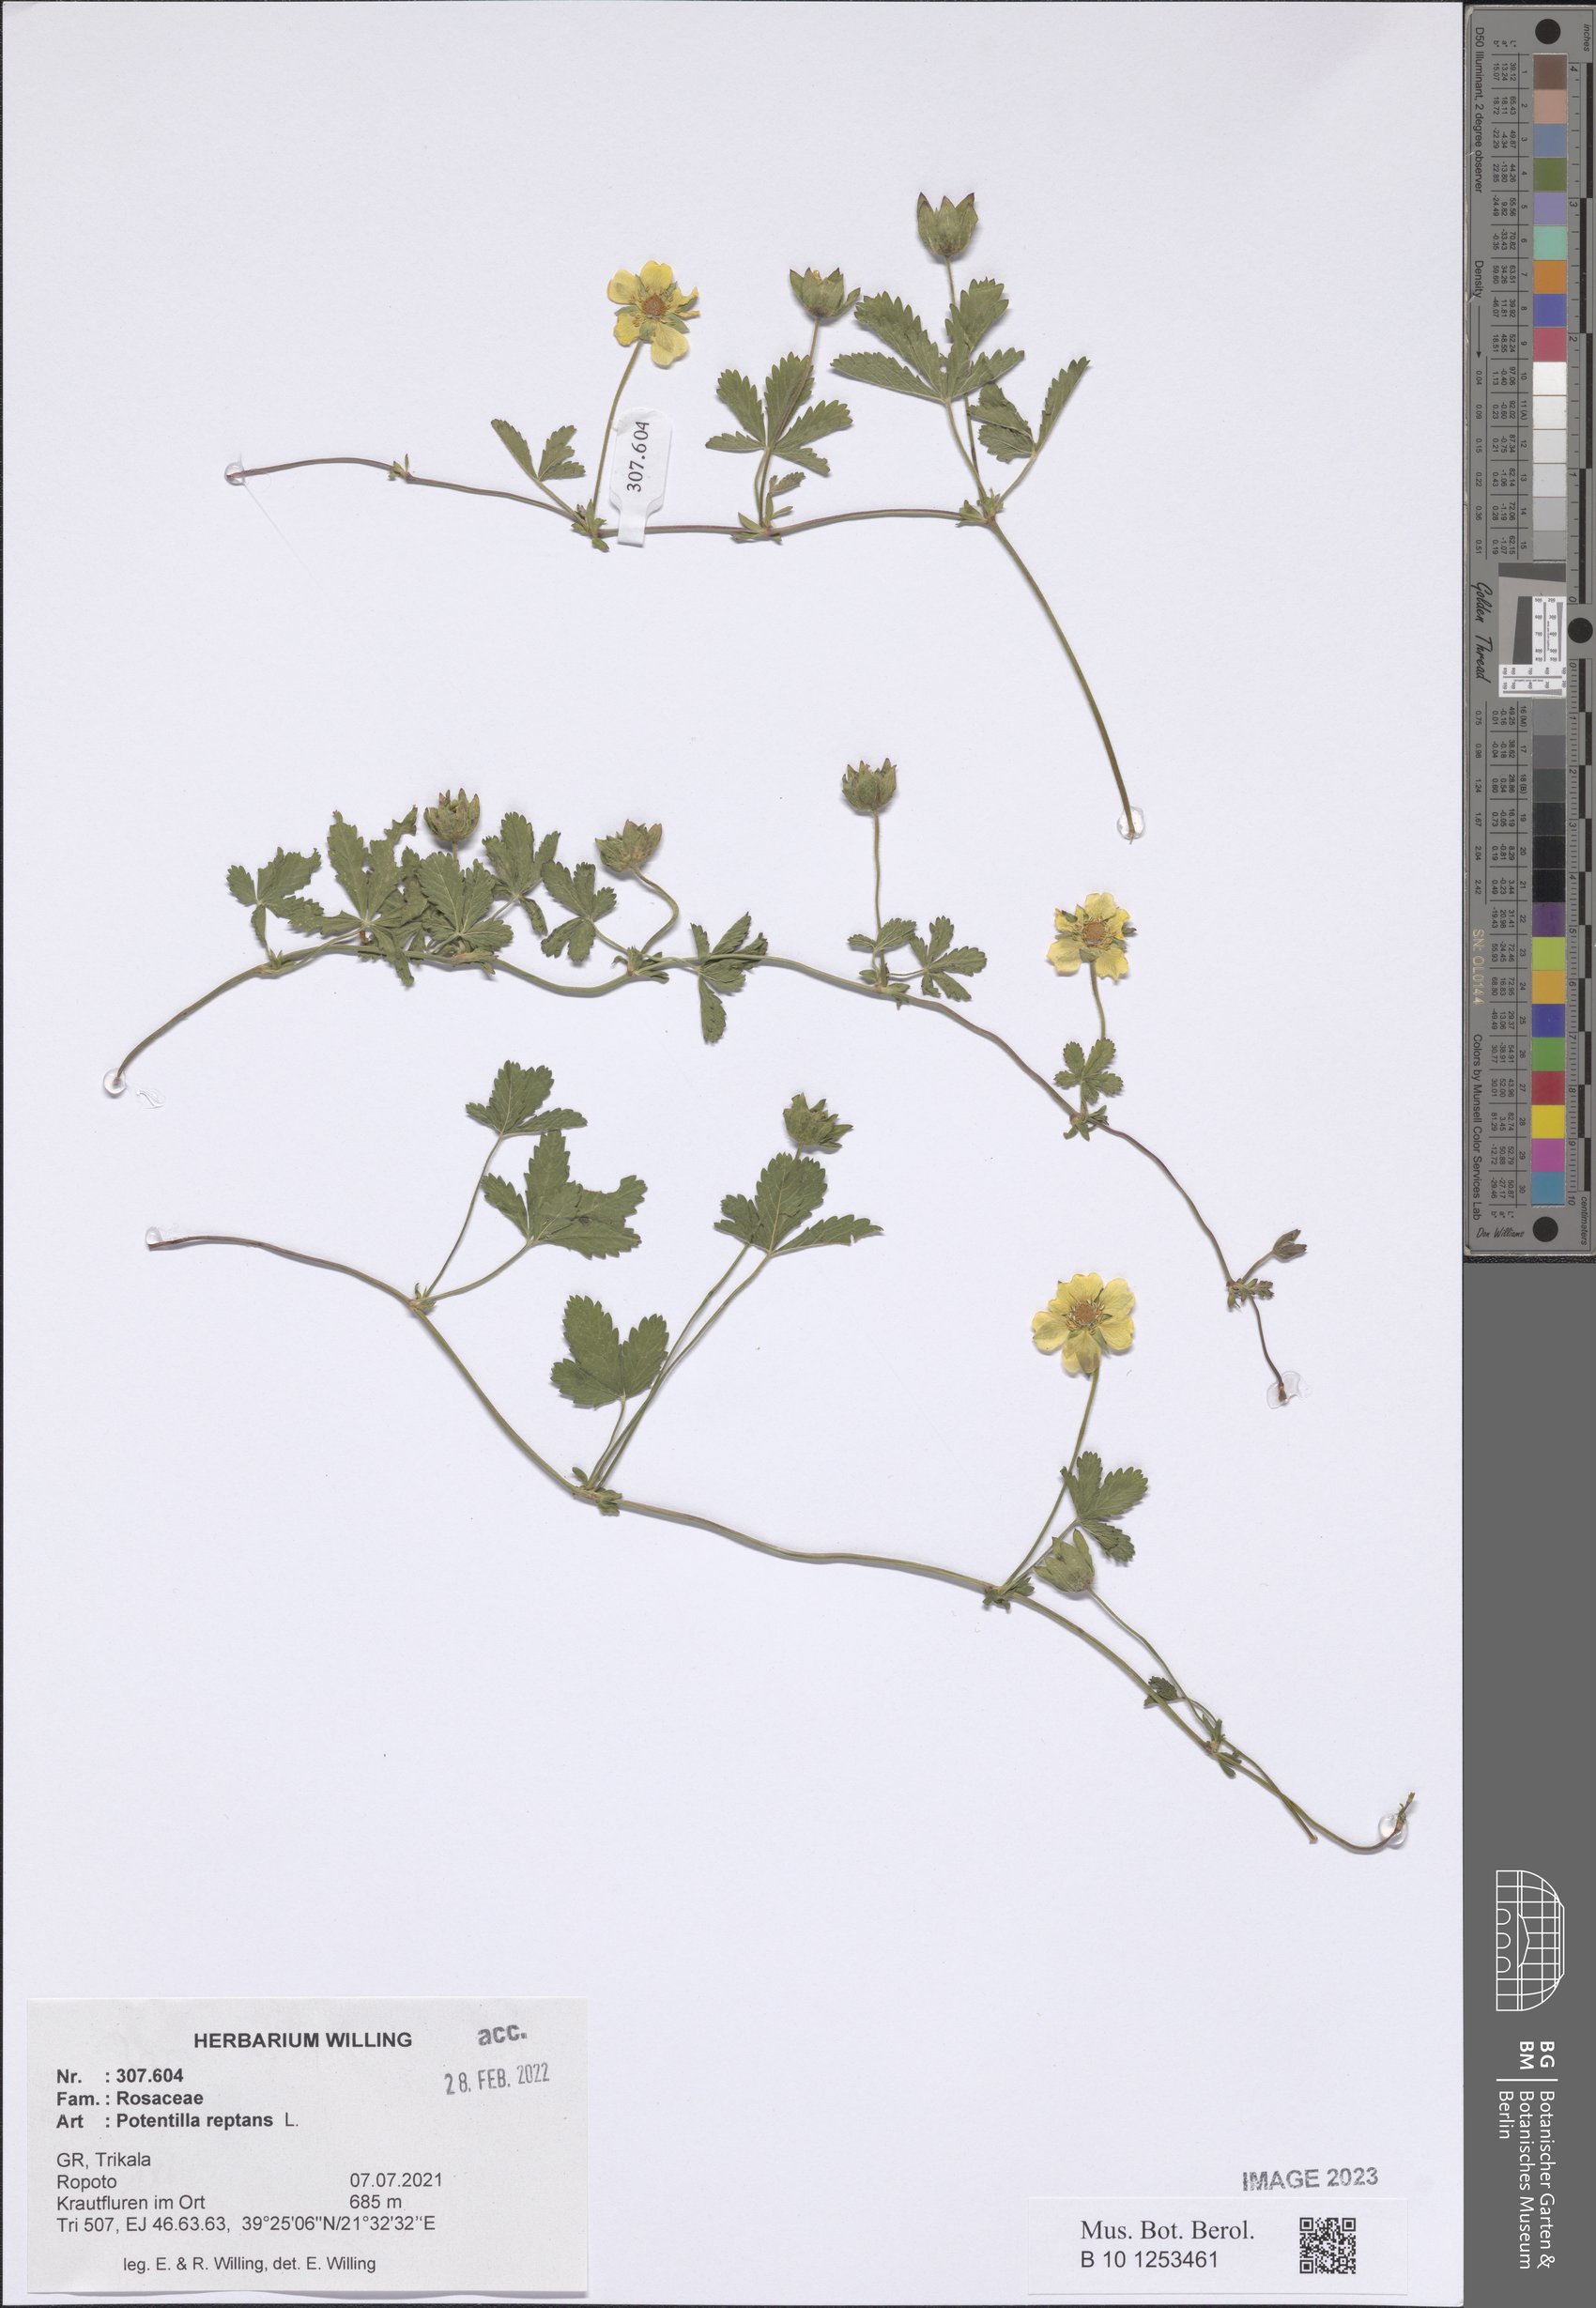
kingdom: Plantae
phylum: Tracheophyta
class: Magnoliopsida
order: Rosales
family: Rosaceae
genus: Potentilla
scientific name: Potentilla reptans
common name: Creeping cinquefoil
